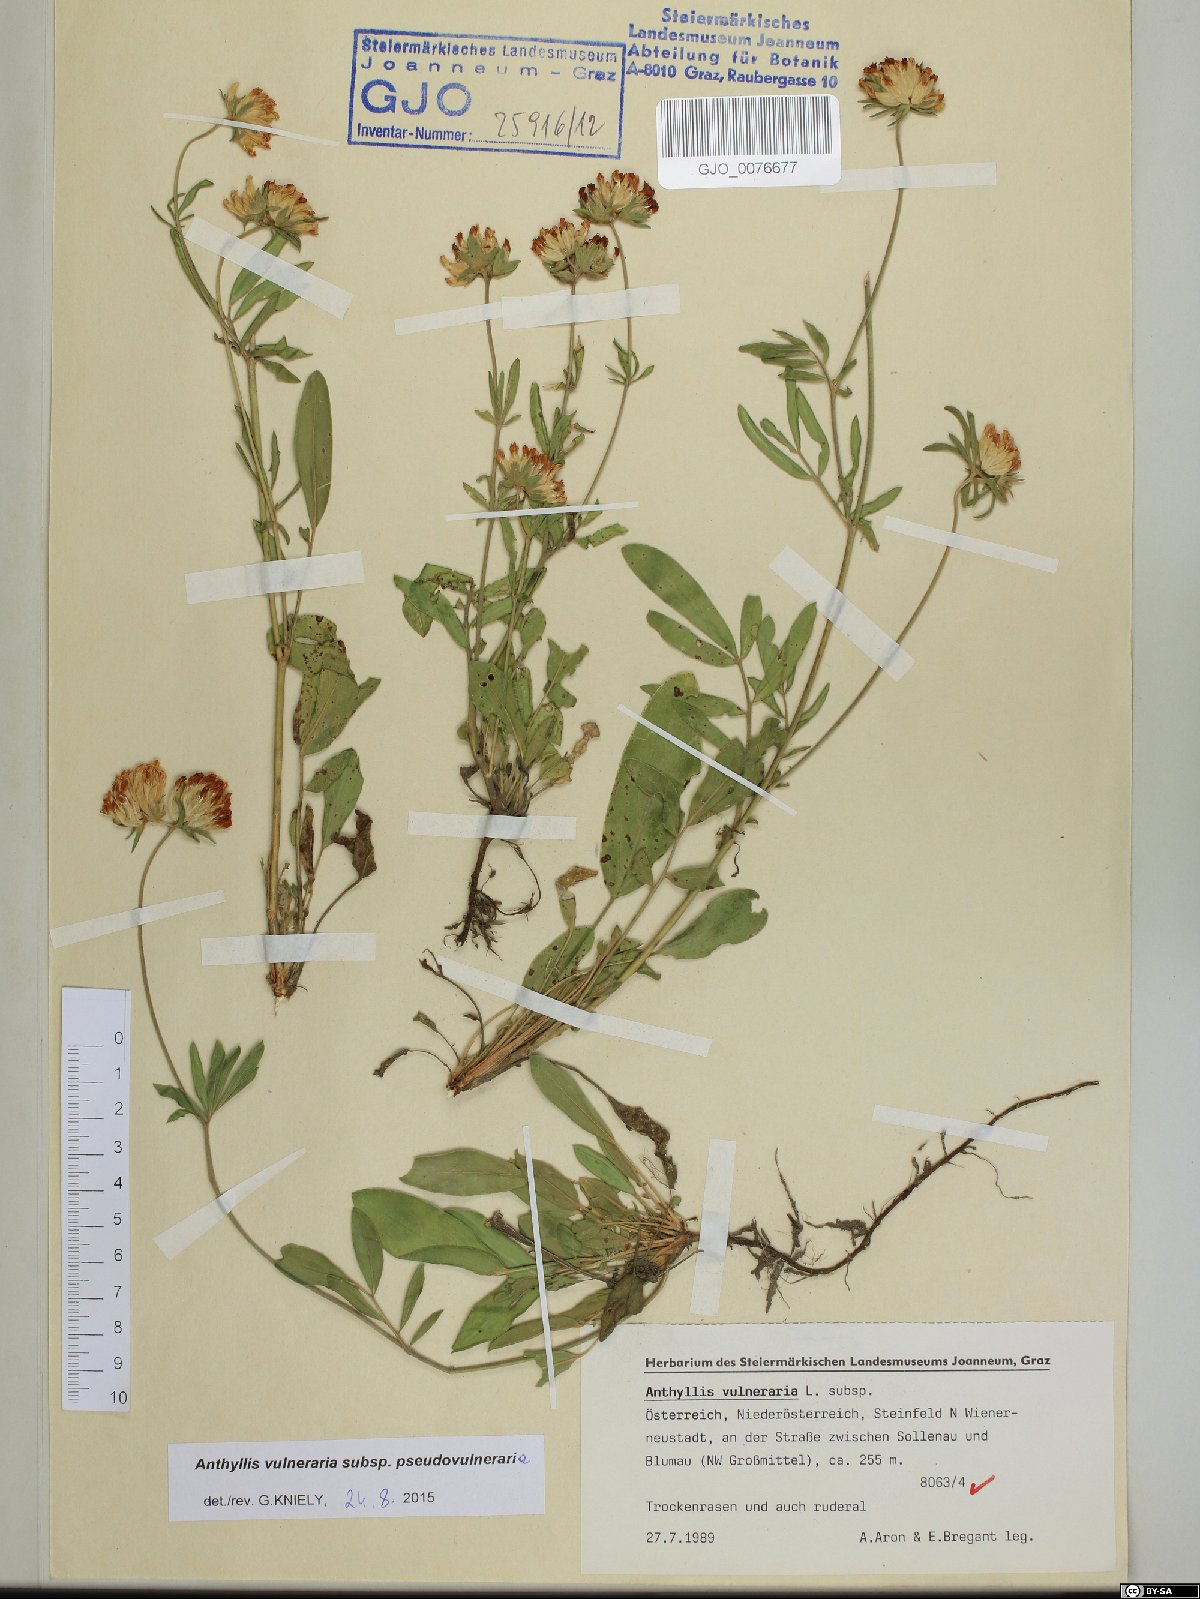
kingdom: Plantae
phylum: Tracheophyta
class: Magnoliopsida
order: Fabales
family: Fabaceae
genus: Anthyllis
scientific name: Anthyllis vulneraria
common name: Kidney vetch
